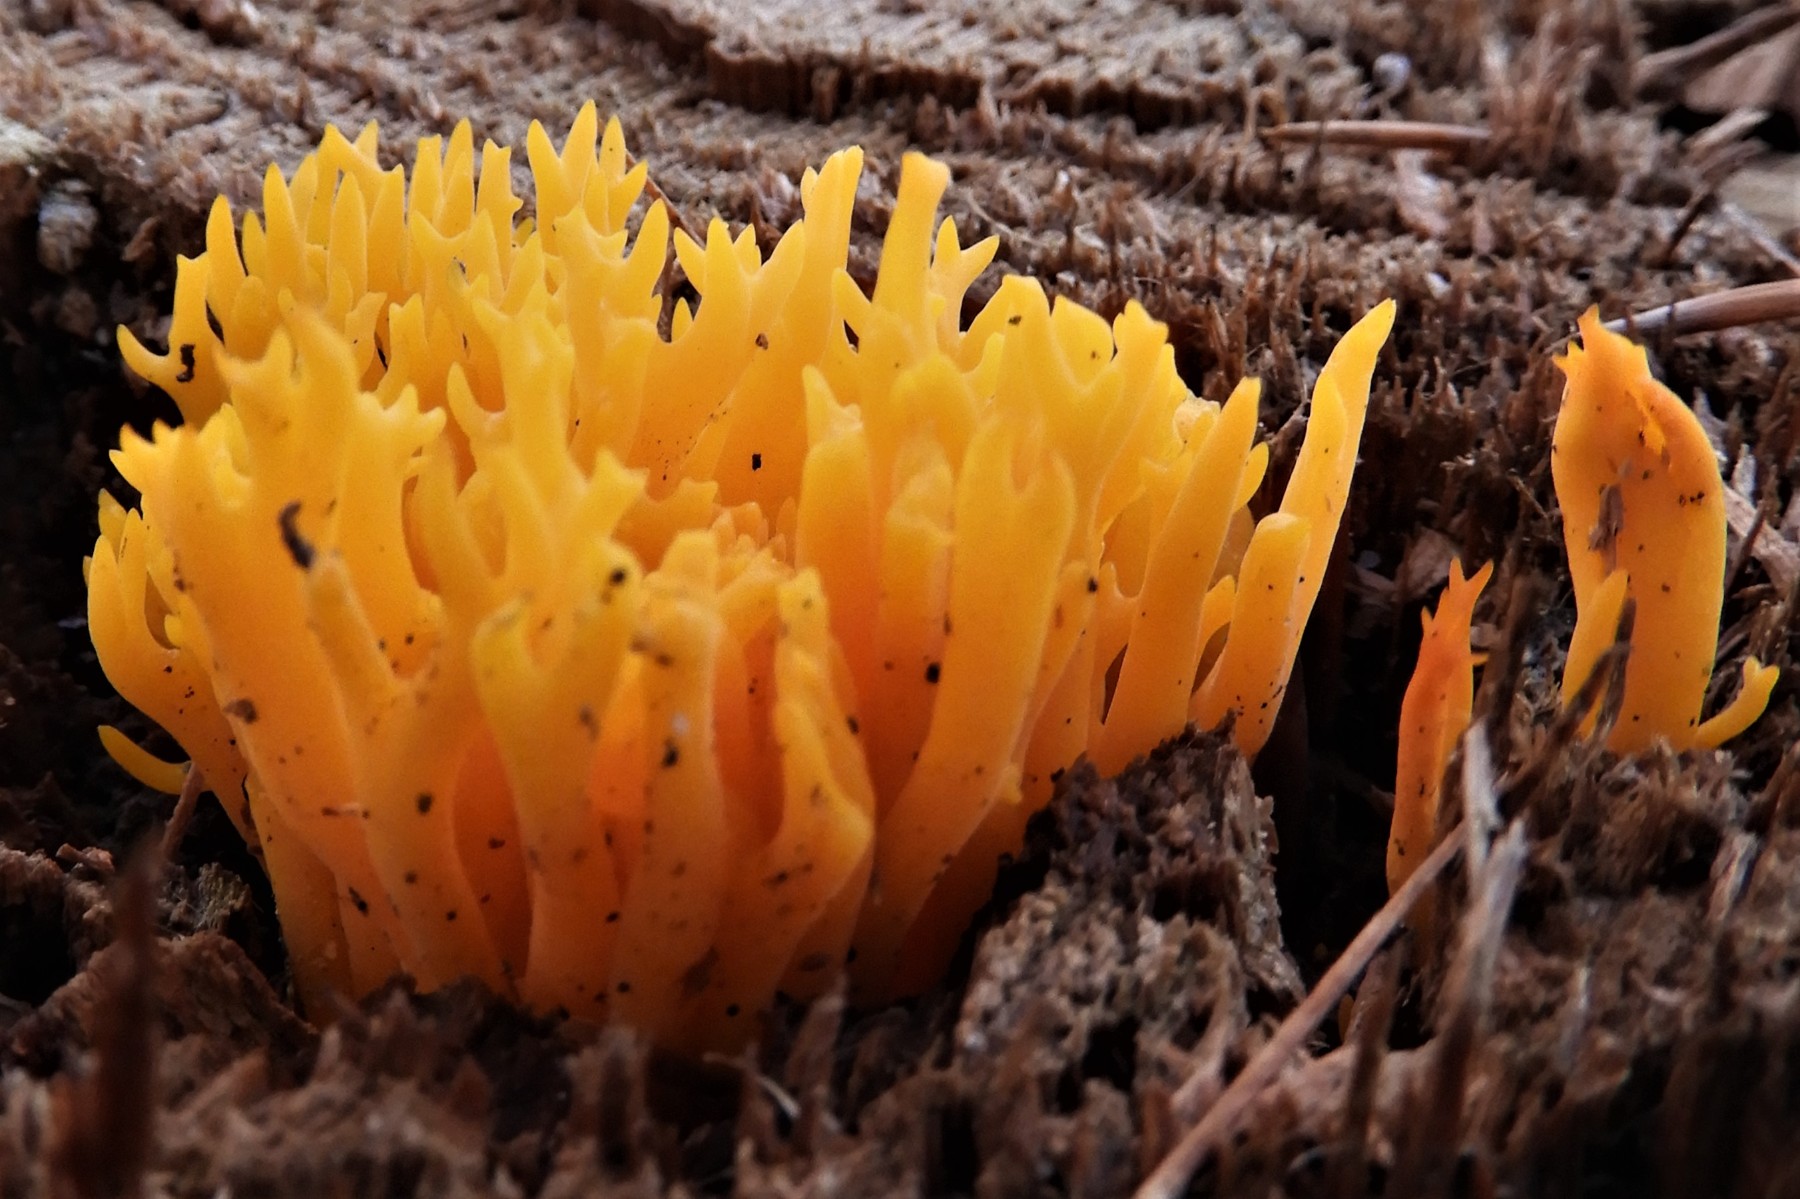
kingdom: Fungi
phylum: Basidiomycota
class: Dacrymycetes
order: Dacrymycetales
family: Dacrymycetaceae
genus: Calocera
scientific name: Calocera viscosa
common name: almindelig guldgaffel
